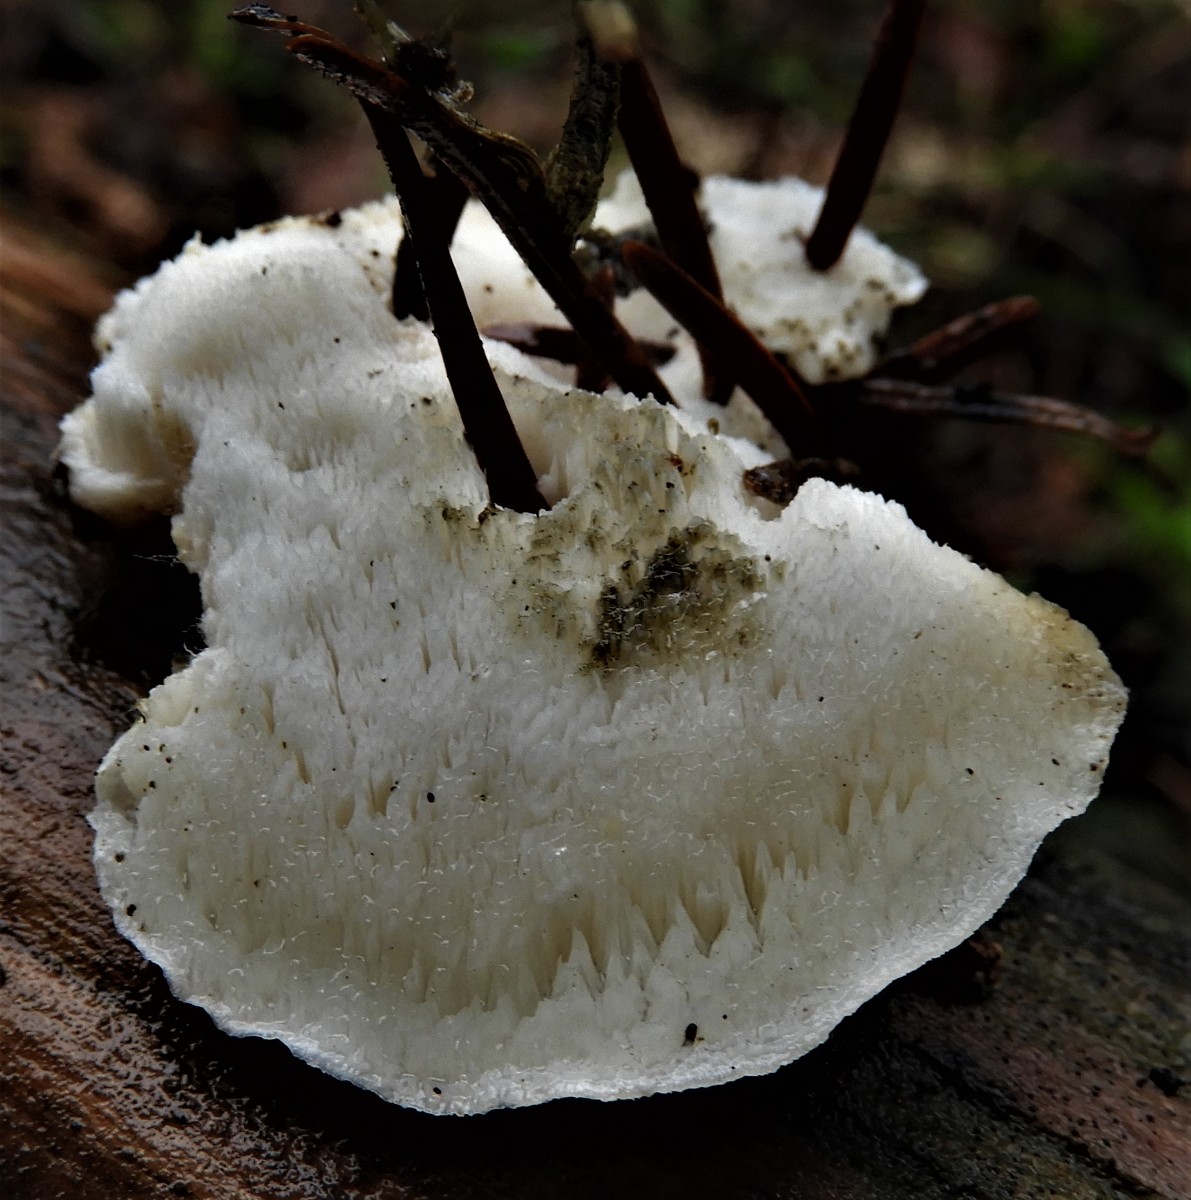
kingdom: Fungi
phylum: Basidiomycota
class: Agaricomycetes
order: Polyporales
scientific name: Polyporales
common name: poresvampordenen
